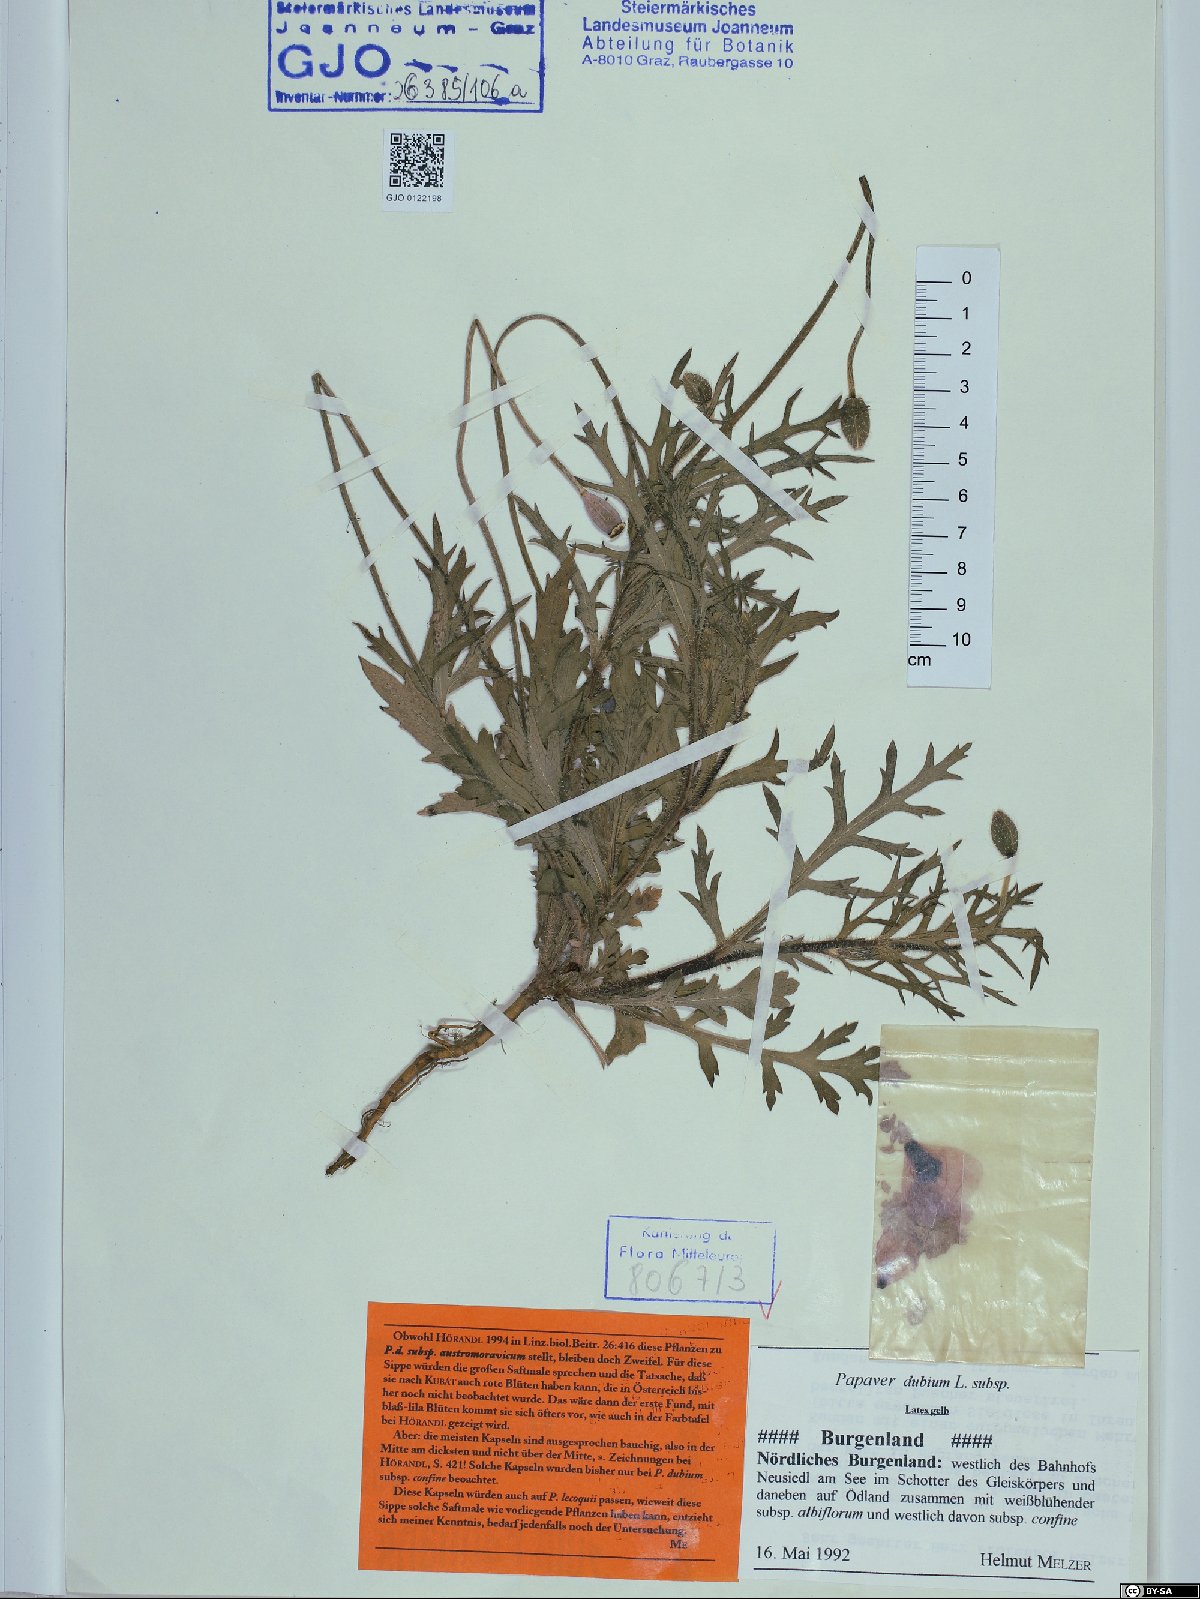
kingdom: Plantae
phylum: Tracheophyta
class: Magnoliopsida
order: Ranunculales
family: Papaveraceae
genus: Papaver
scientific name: Papaver dubium
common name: Long-headed poppy
